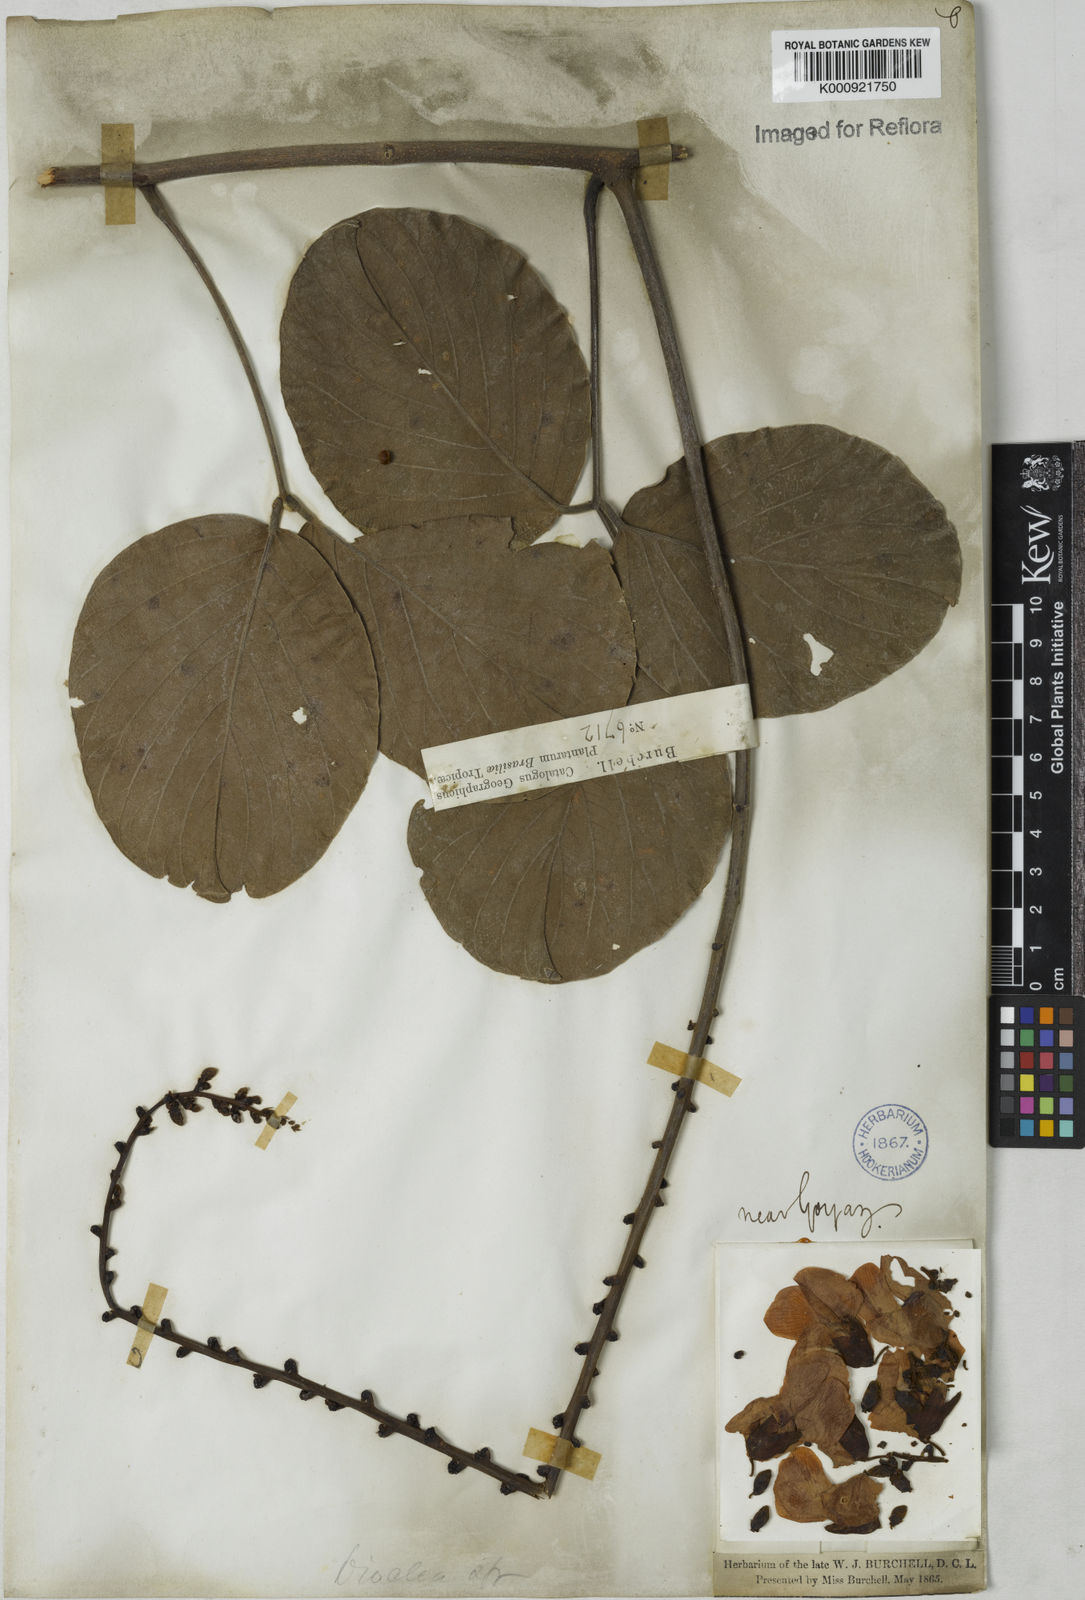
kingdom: Plantae
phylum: Tracheophyta
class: Magnoliopsida
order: Fabales
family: Fabaceae
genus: Macropsychanthus
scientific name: Macropsychanthus latifolius
